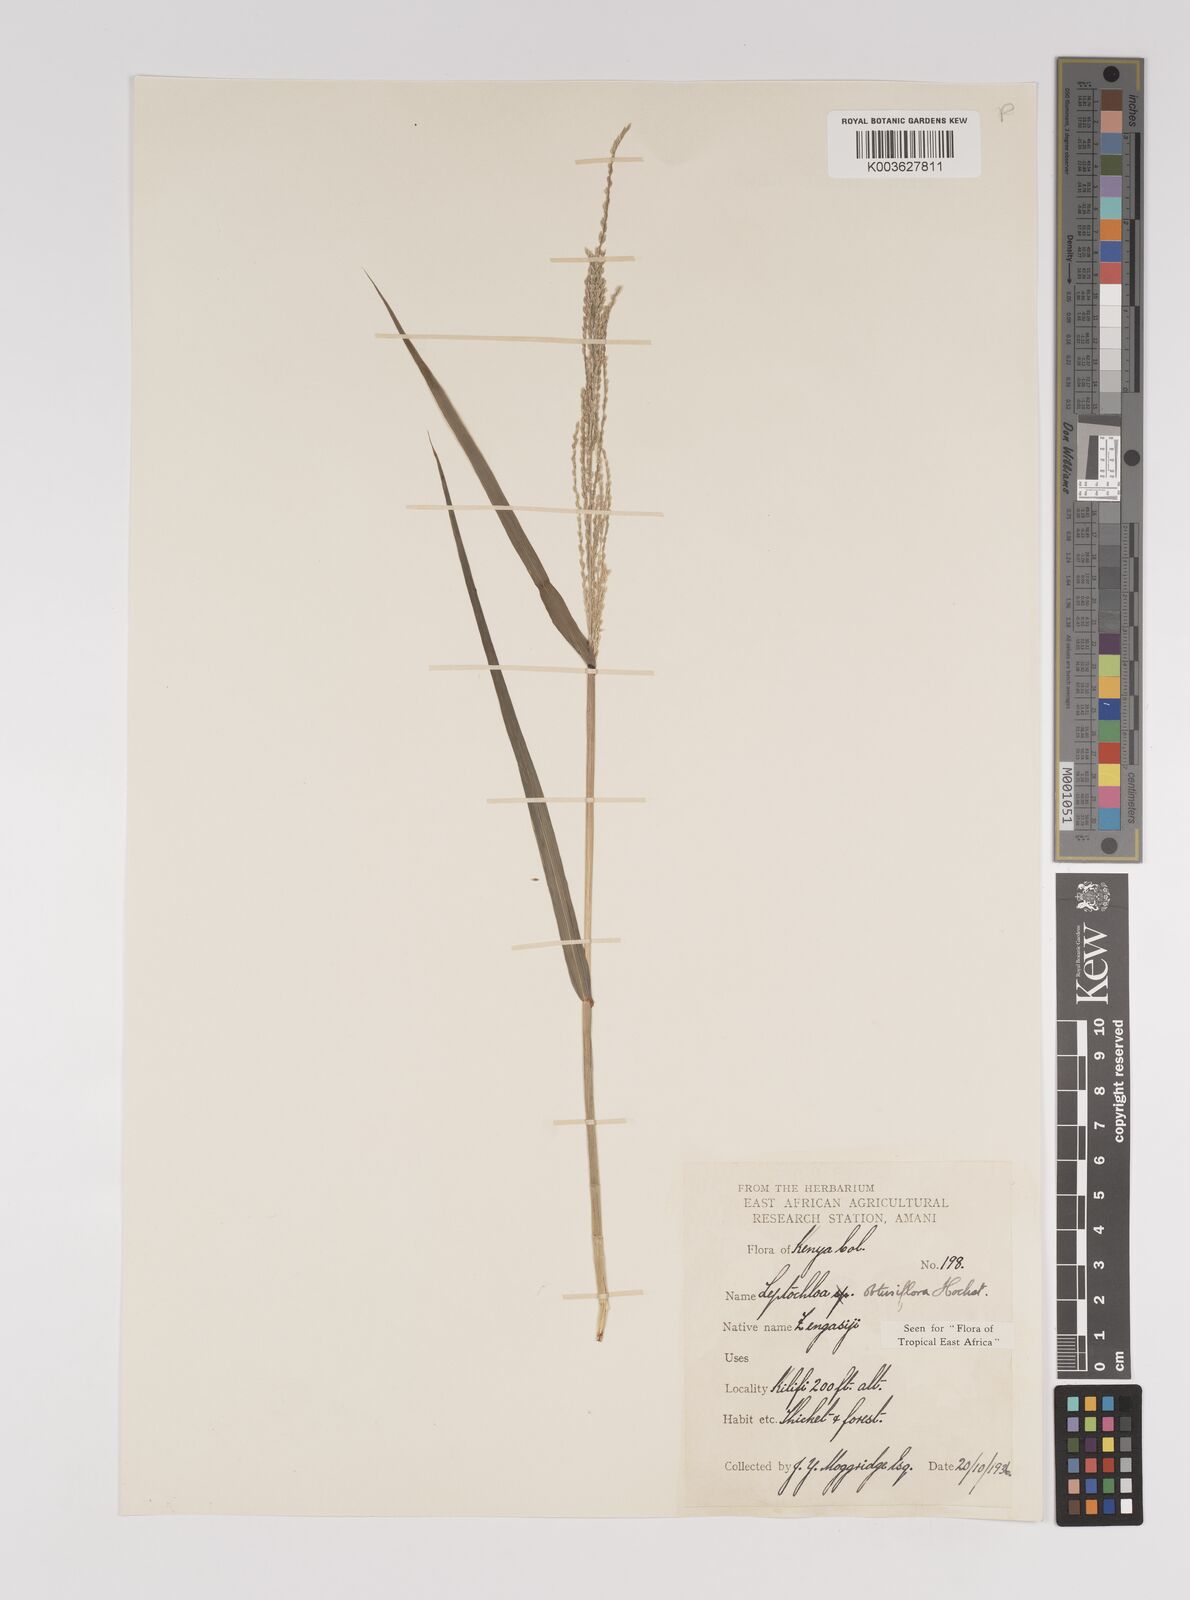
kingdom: Plantae
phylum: Tracheophyta
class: Liliopsida
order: Poales
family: Poaceae
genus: Disakisperma
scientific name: Disakisperma obtusiflorum
